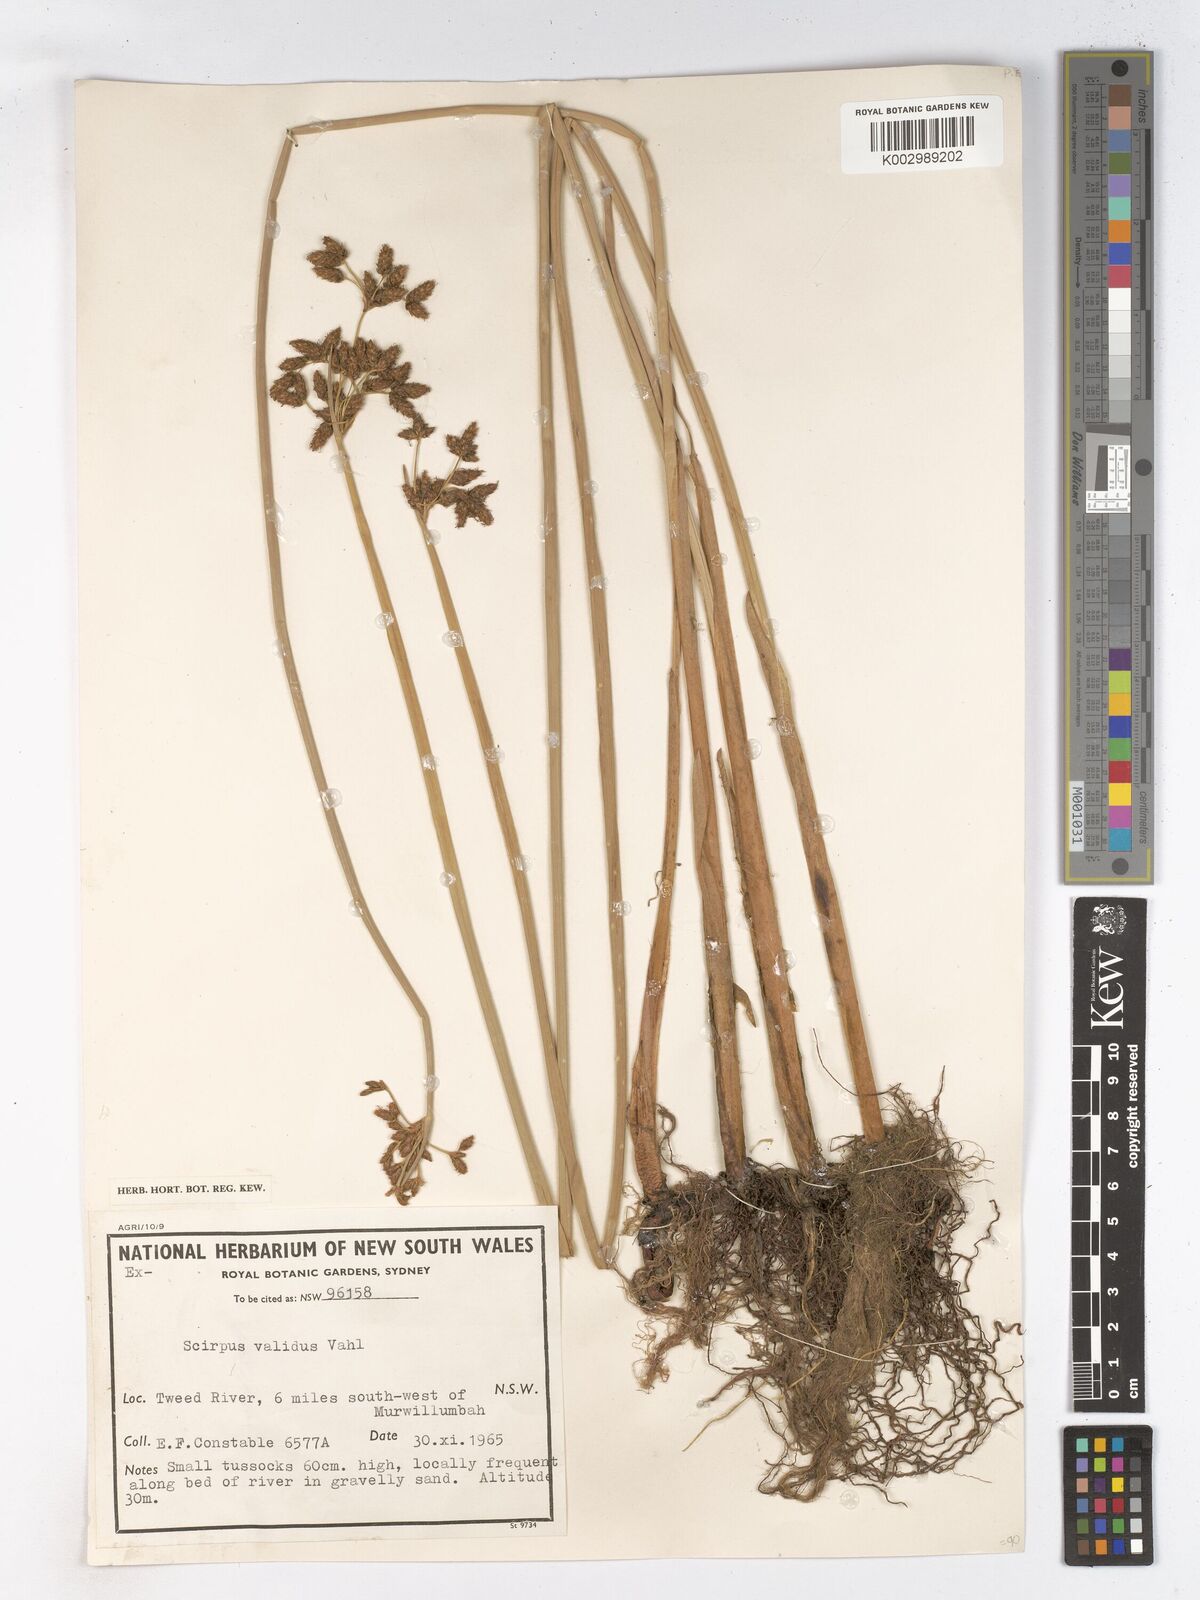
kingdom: Plantae
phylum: Tracheophyta
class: Liliopsida
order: Poales
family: Cyperaceae
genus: Schoenoplectus
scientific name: Schoenoplectus lacustris
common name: Common club-rush
